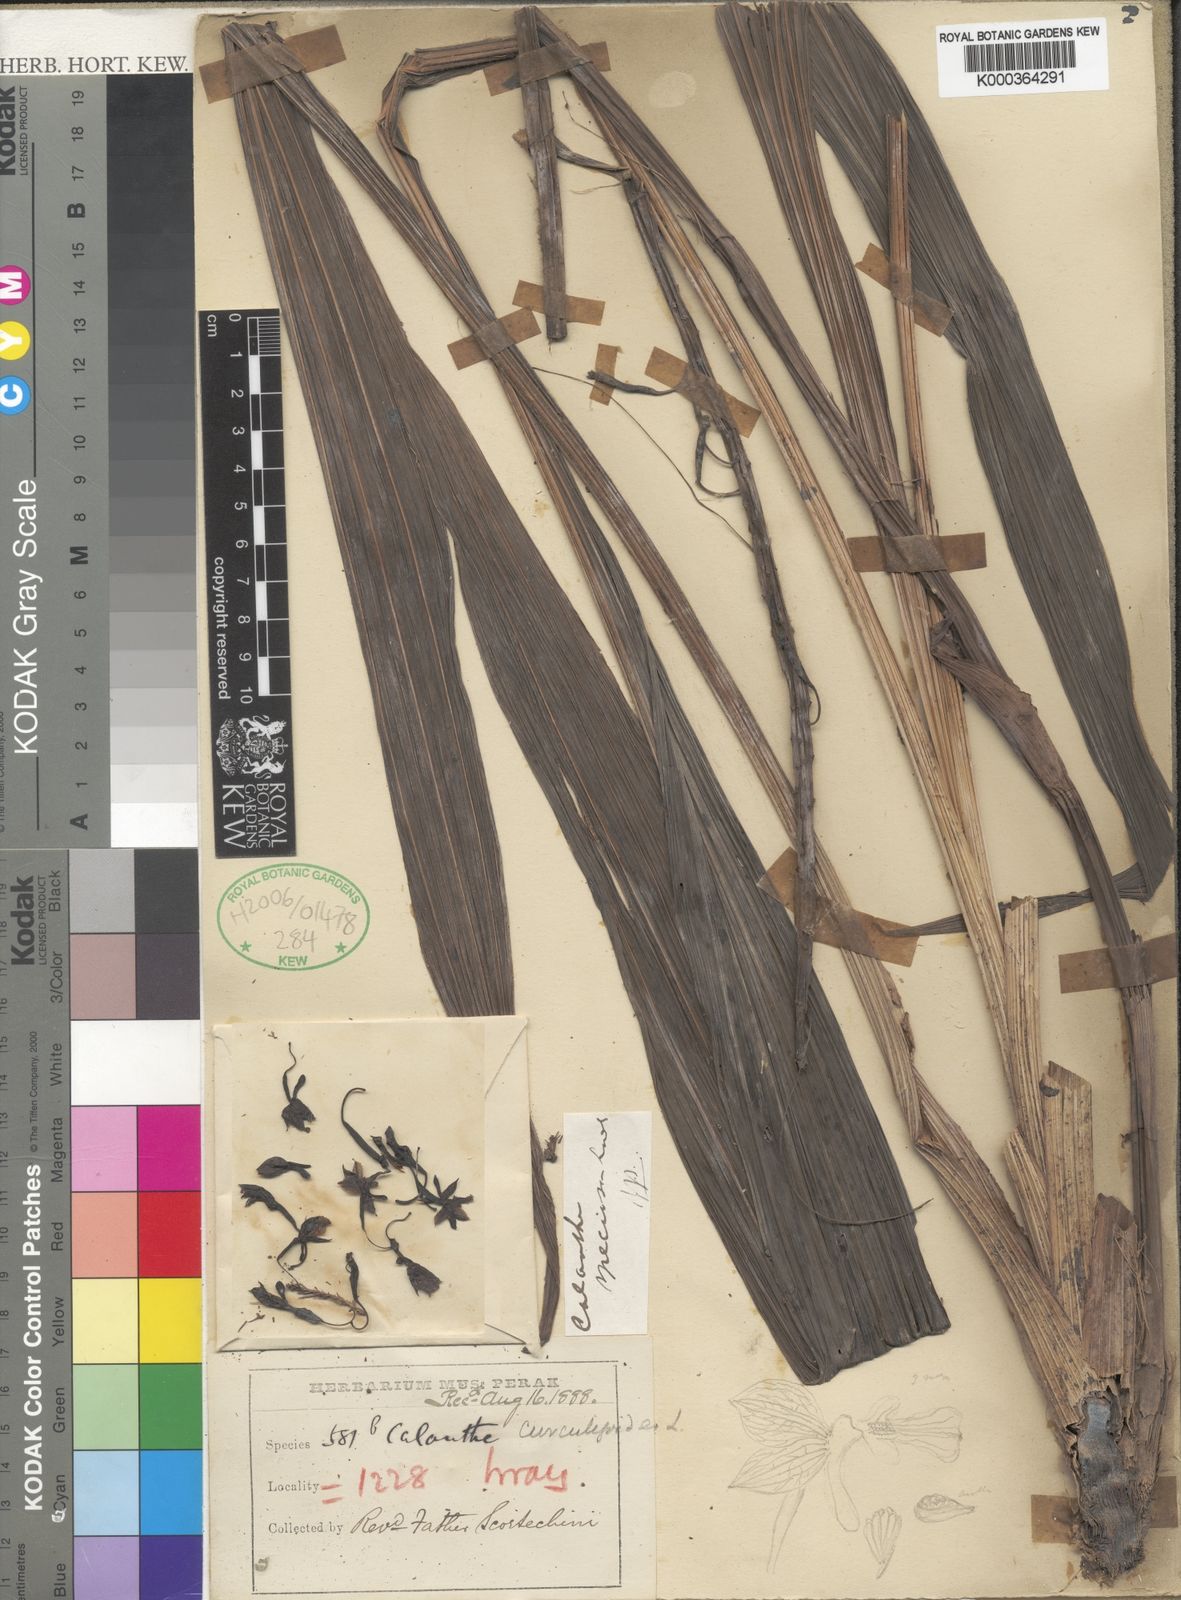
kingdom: Plantae
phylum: Tracheophyta
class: Liliopsida
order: Asparagales
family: Orchidaceae
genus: Calanthe
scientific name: Calanthe pulchra
